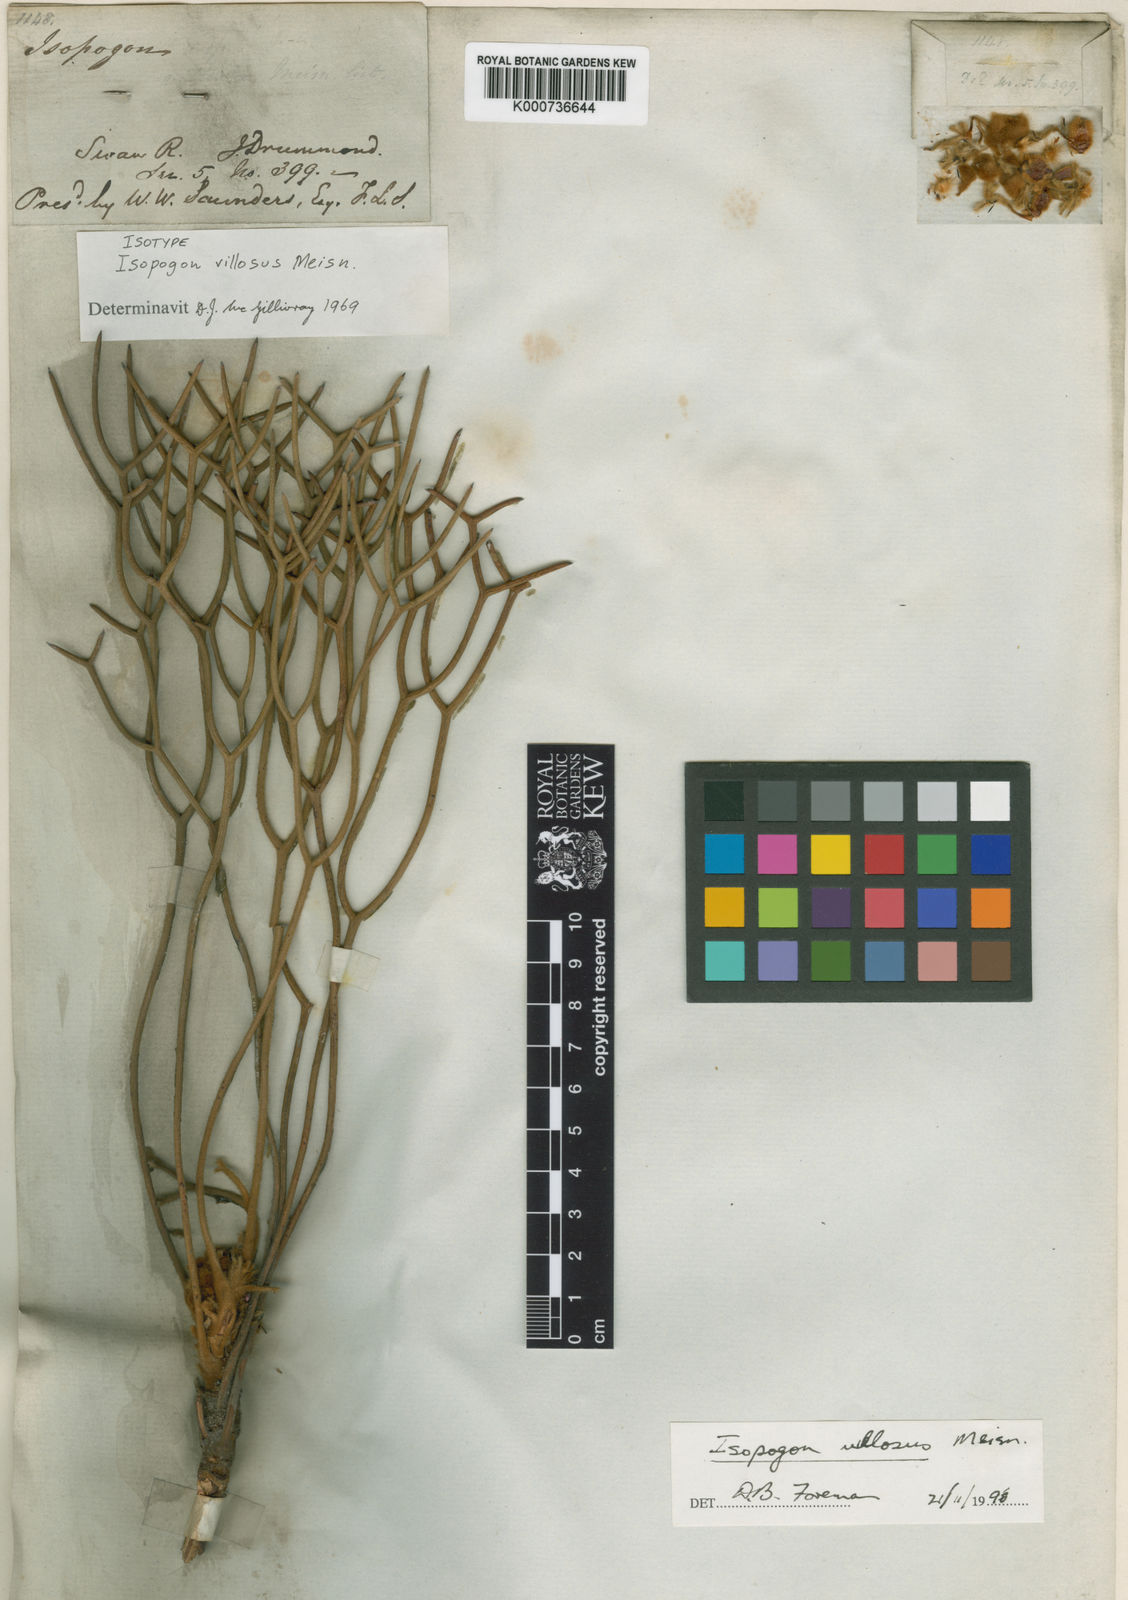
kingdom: Plantae
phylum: Tracheophyta
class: Magnoliopsida
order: Proteales
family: Proteaceae
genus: Isopogon
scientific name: Isopogon villosus
